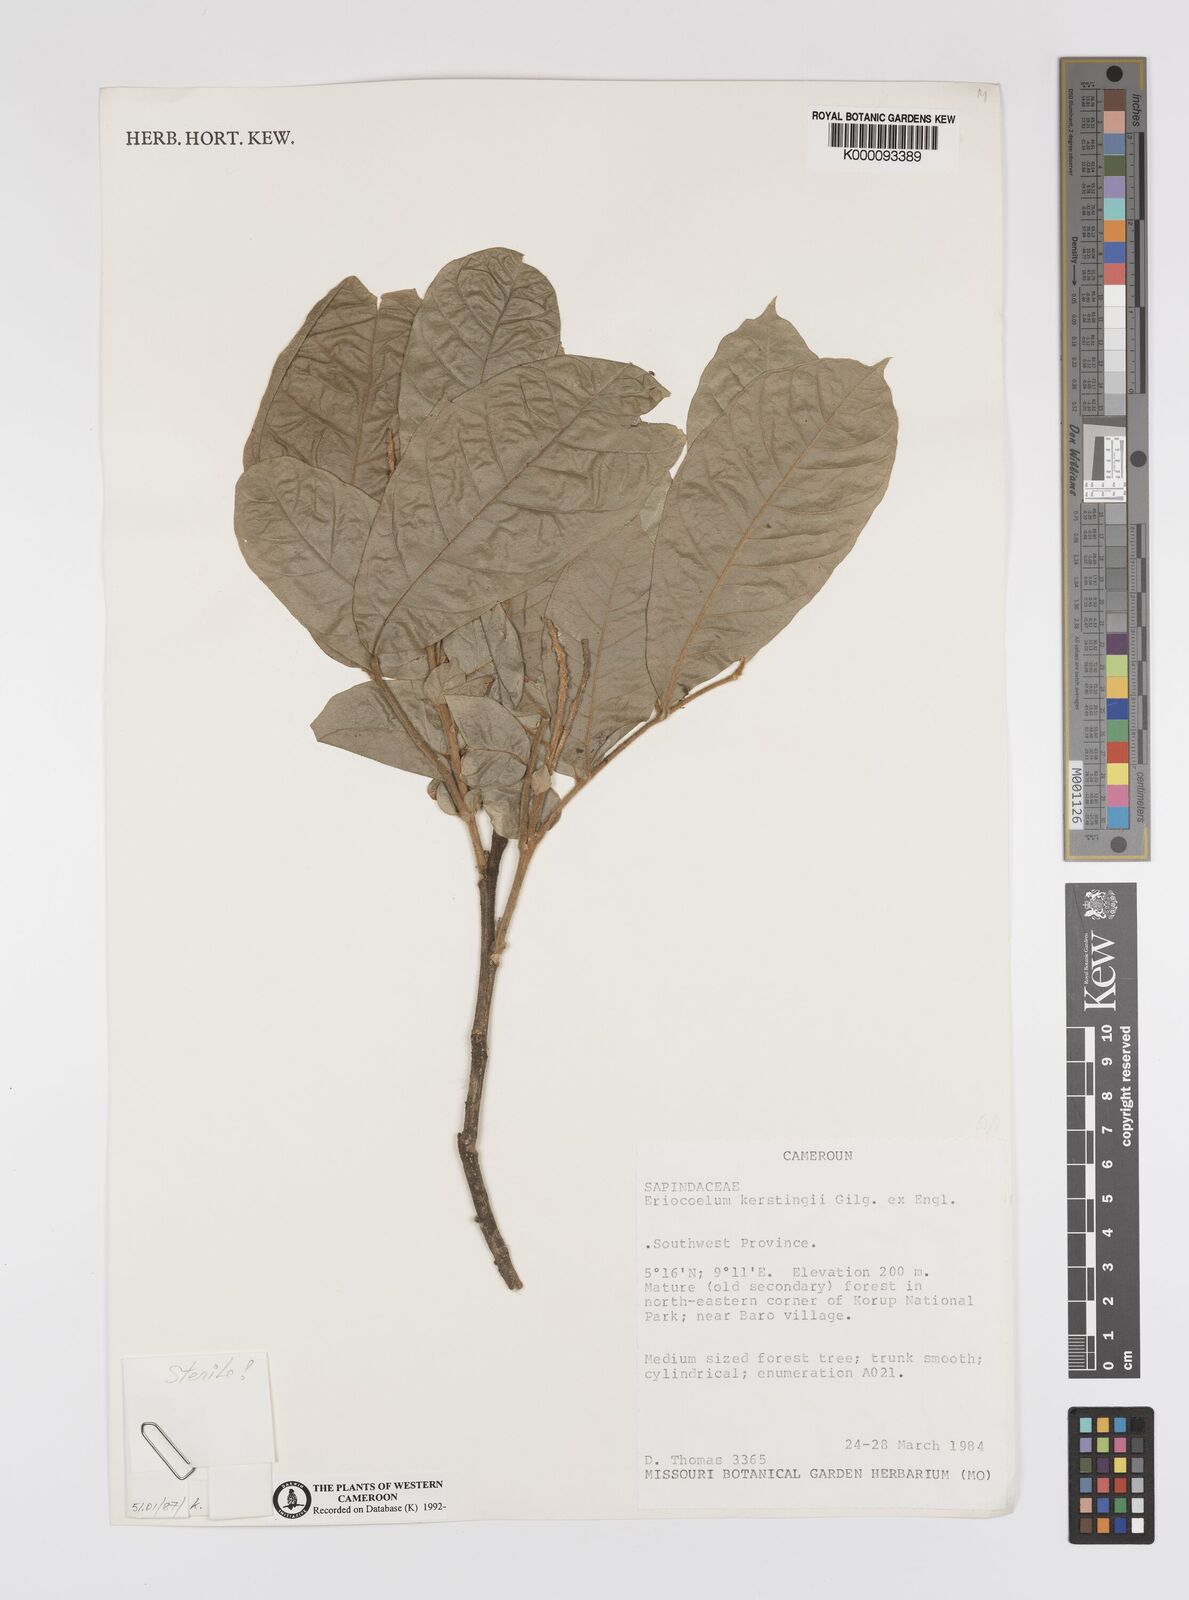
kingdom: Plantae
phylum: Tracheophyta
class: Magnoliopsida
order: Sapindales
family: Sapindaceae
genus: Eriocoelum
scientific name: Eriocoelum kerstingii
